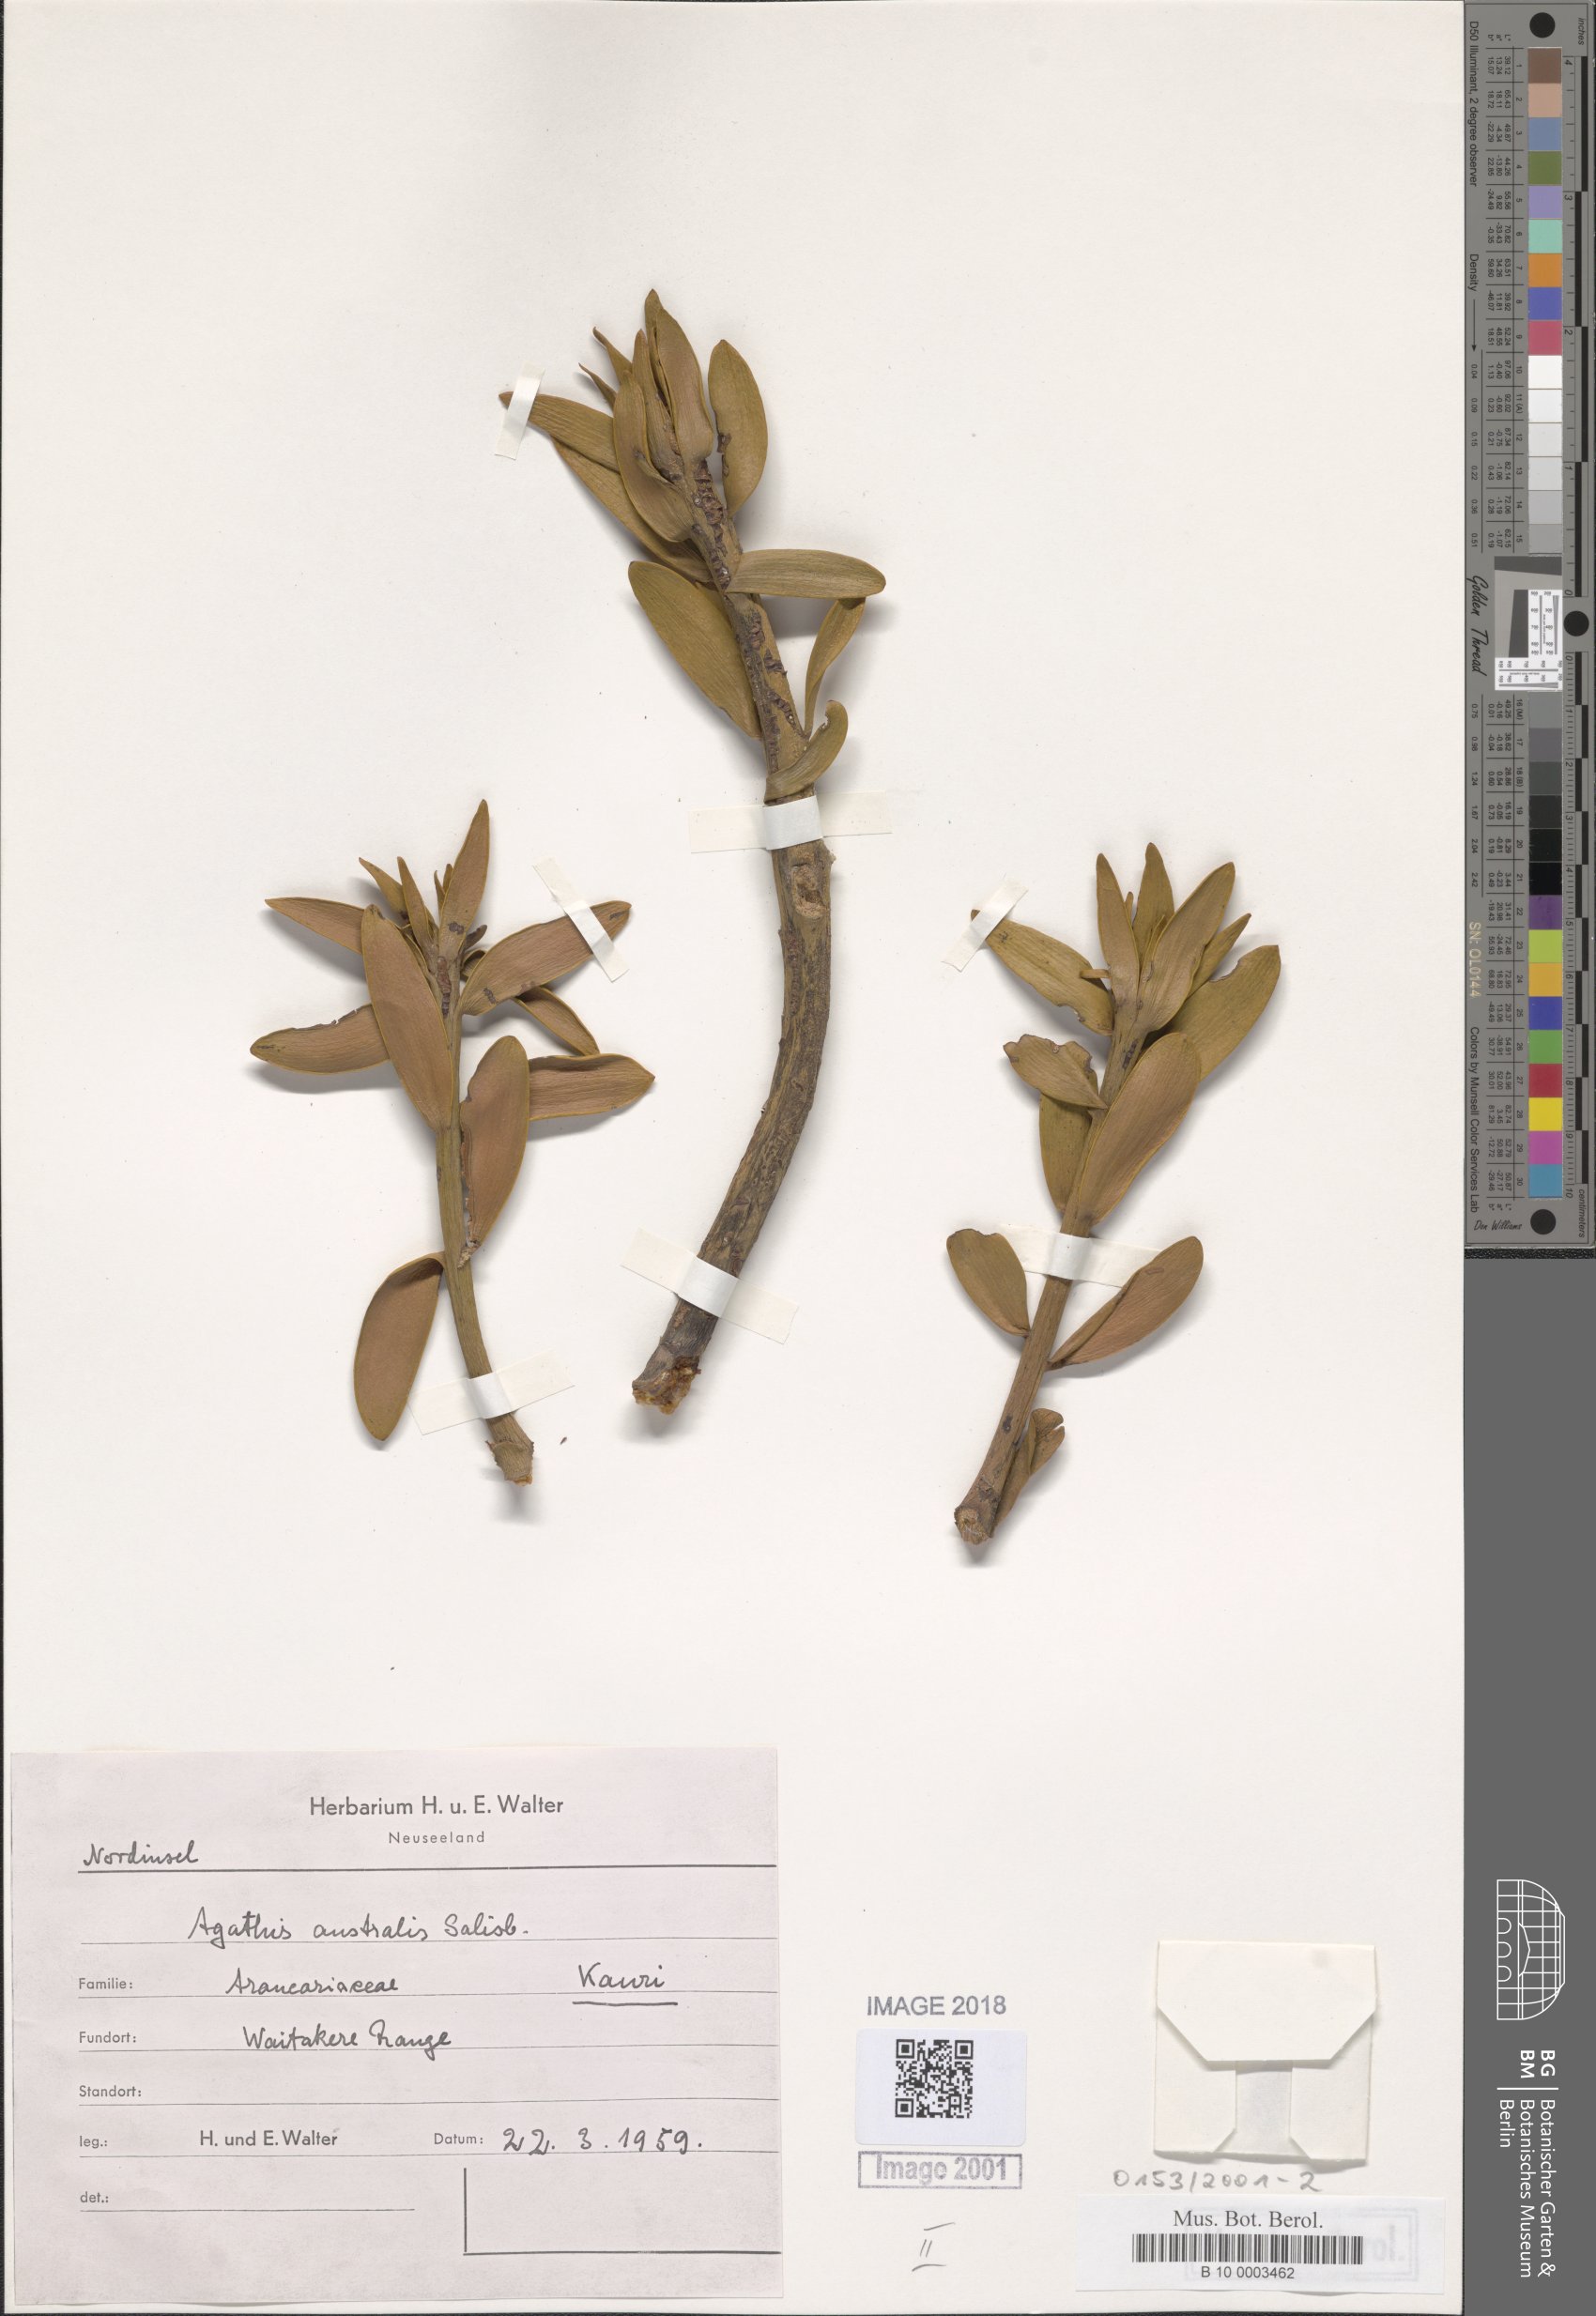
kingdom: Plantae
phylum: Tracheophyta
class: Pinopsida
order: Pinales
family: Araucariaceae
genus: Agathis
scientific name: Agathis australis
